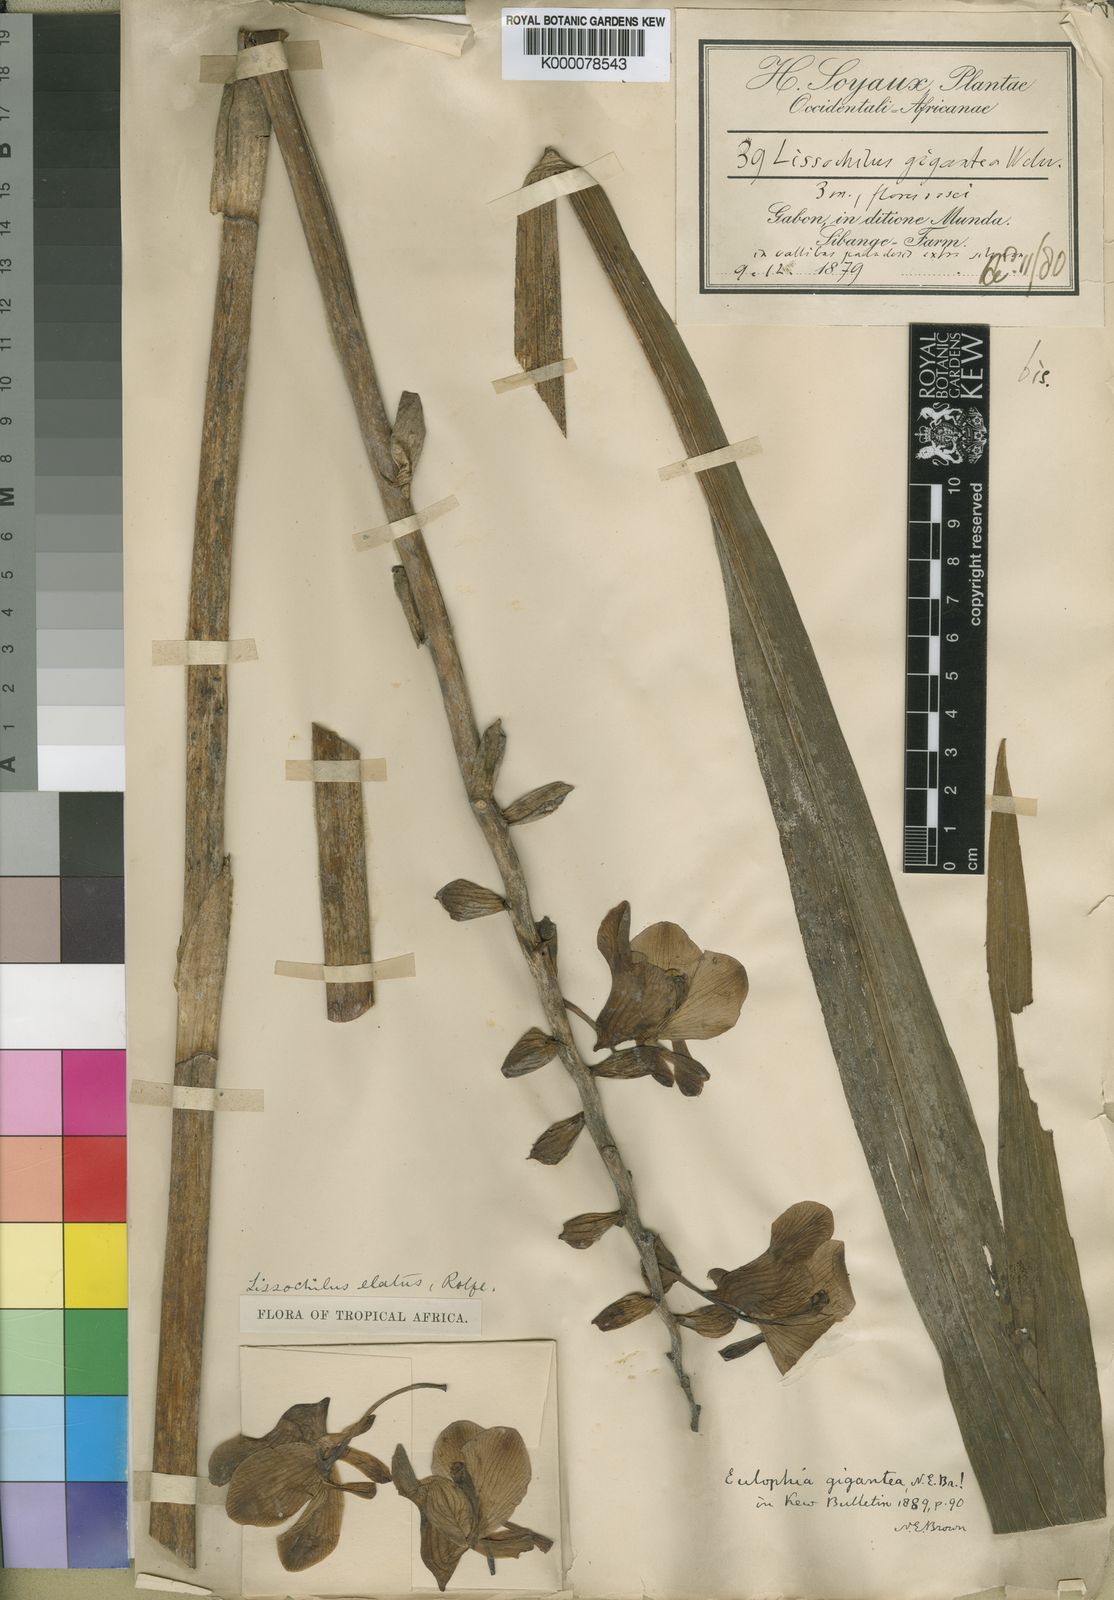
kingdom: Plantae
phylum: Tracheophyta
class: Liliopsida
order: Asparagales
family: Orchidaceae
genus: Eulophia
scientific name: Eulophia bouliawongo
